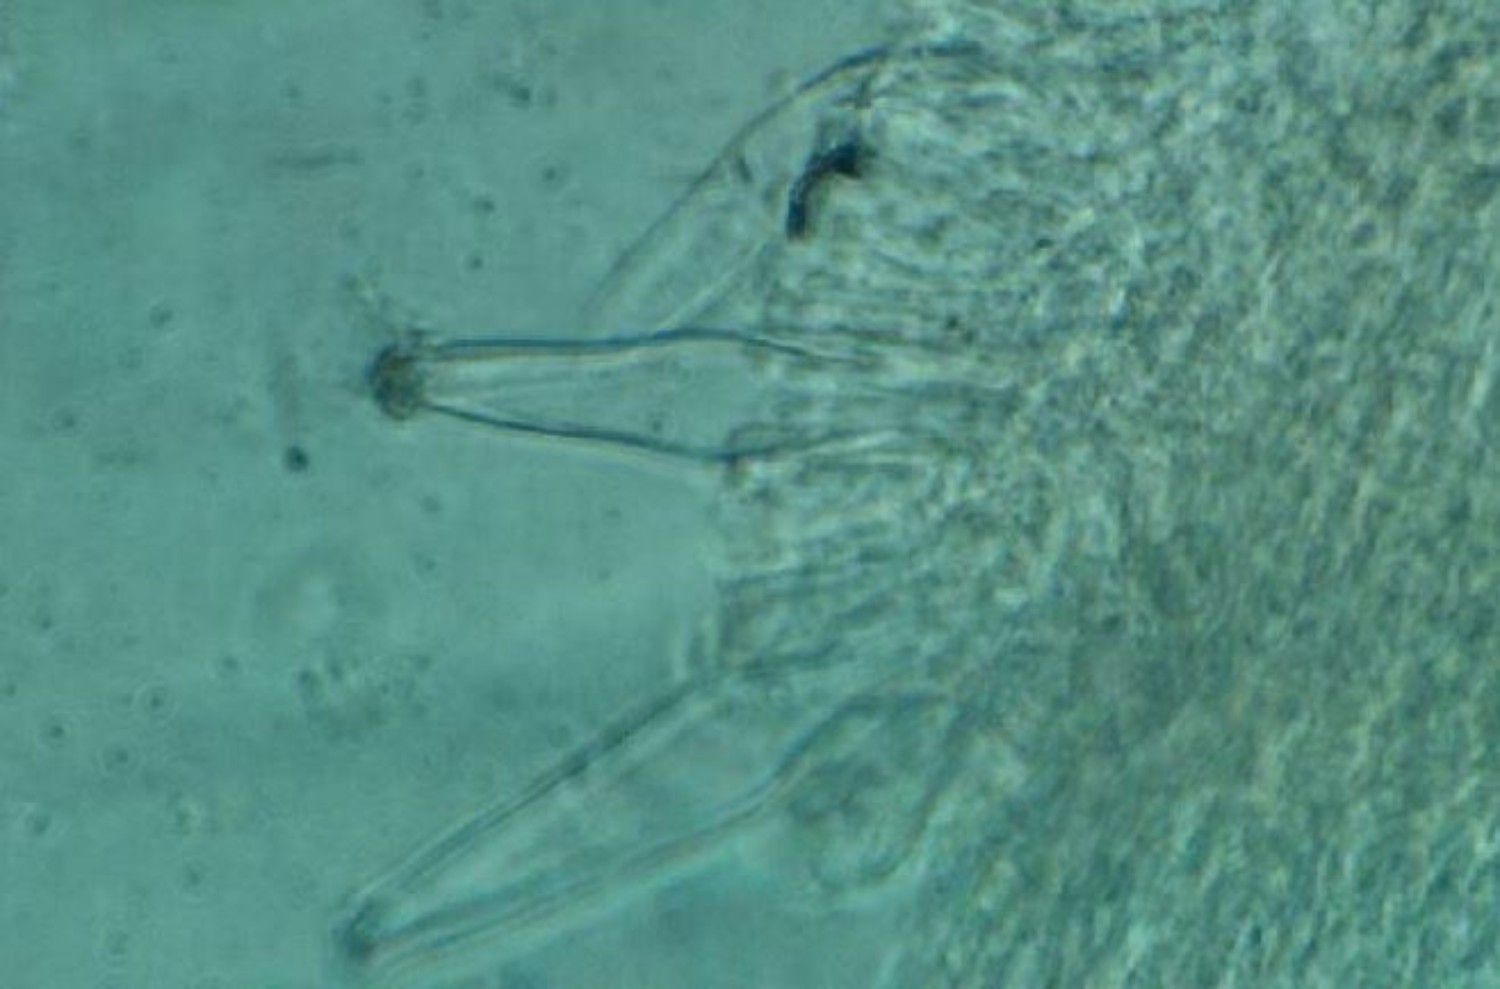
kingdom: Fungi
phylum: Basidiomycota
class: Agaricomycetes
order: Agaricales
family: Inocybaceae
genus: Inocybe
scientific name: Inocybe
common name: trævlhat
